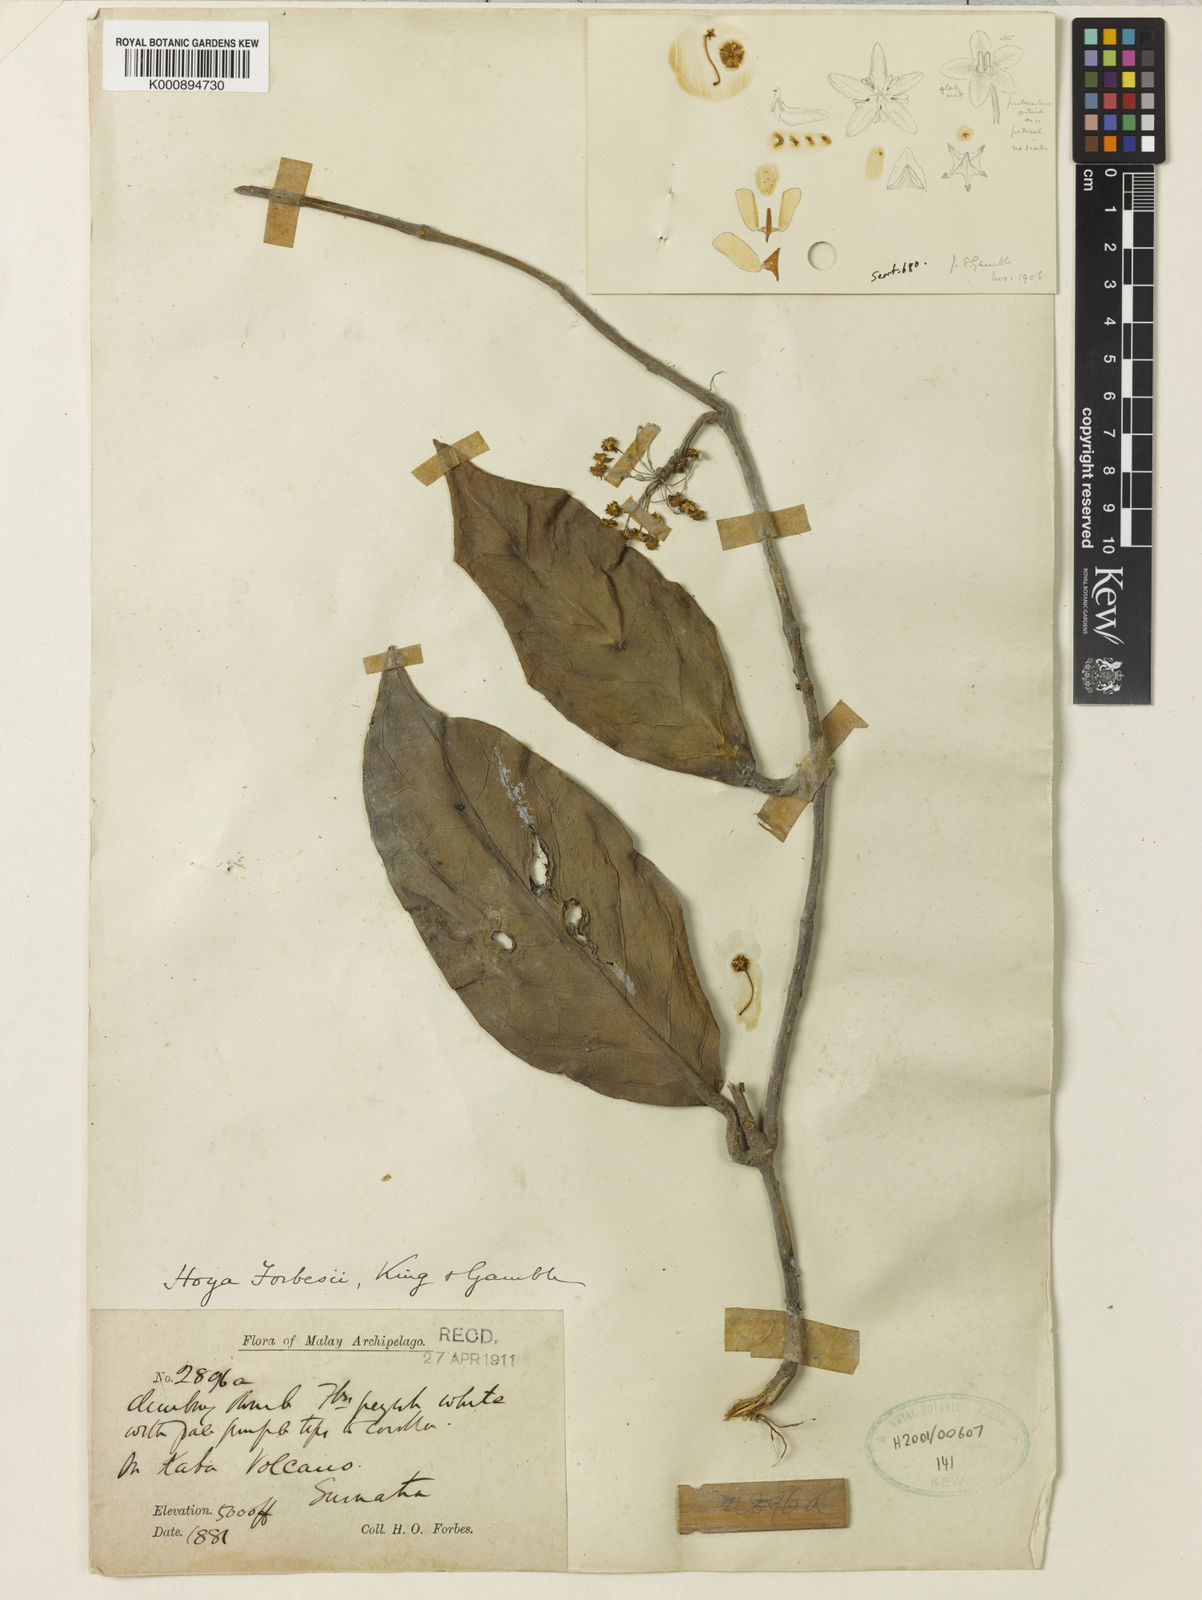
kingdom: Plantae
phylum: Tracheophyta
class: Magnoliopsida
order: Gentianales
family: Apocynaceae
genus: Hoya
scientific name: Hoya forbesii
